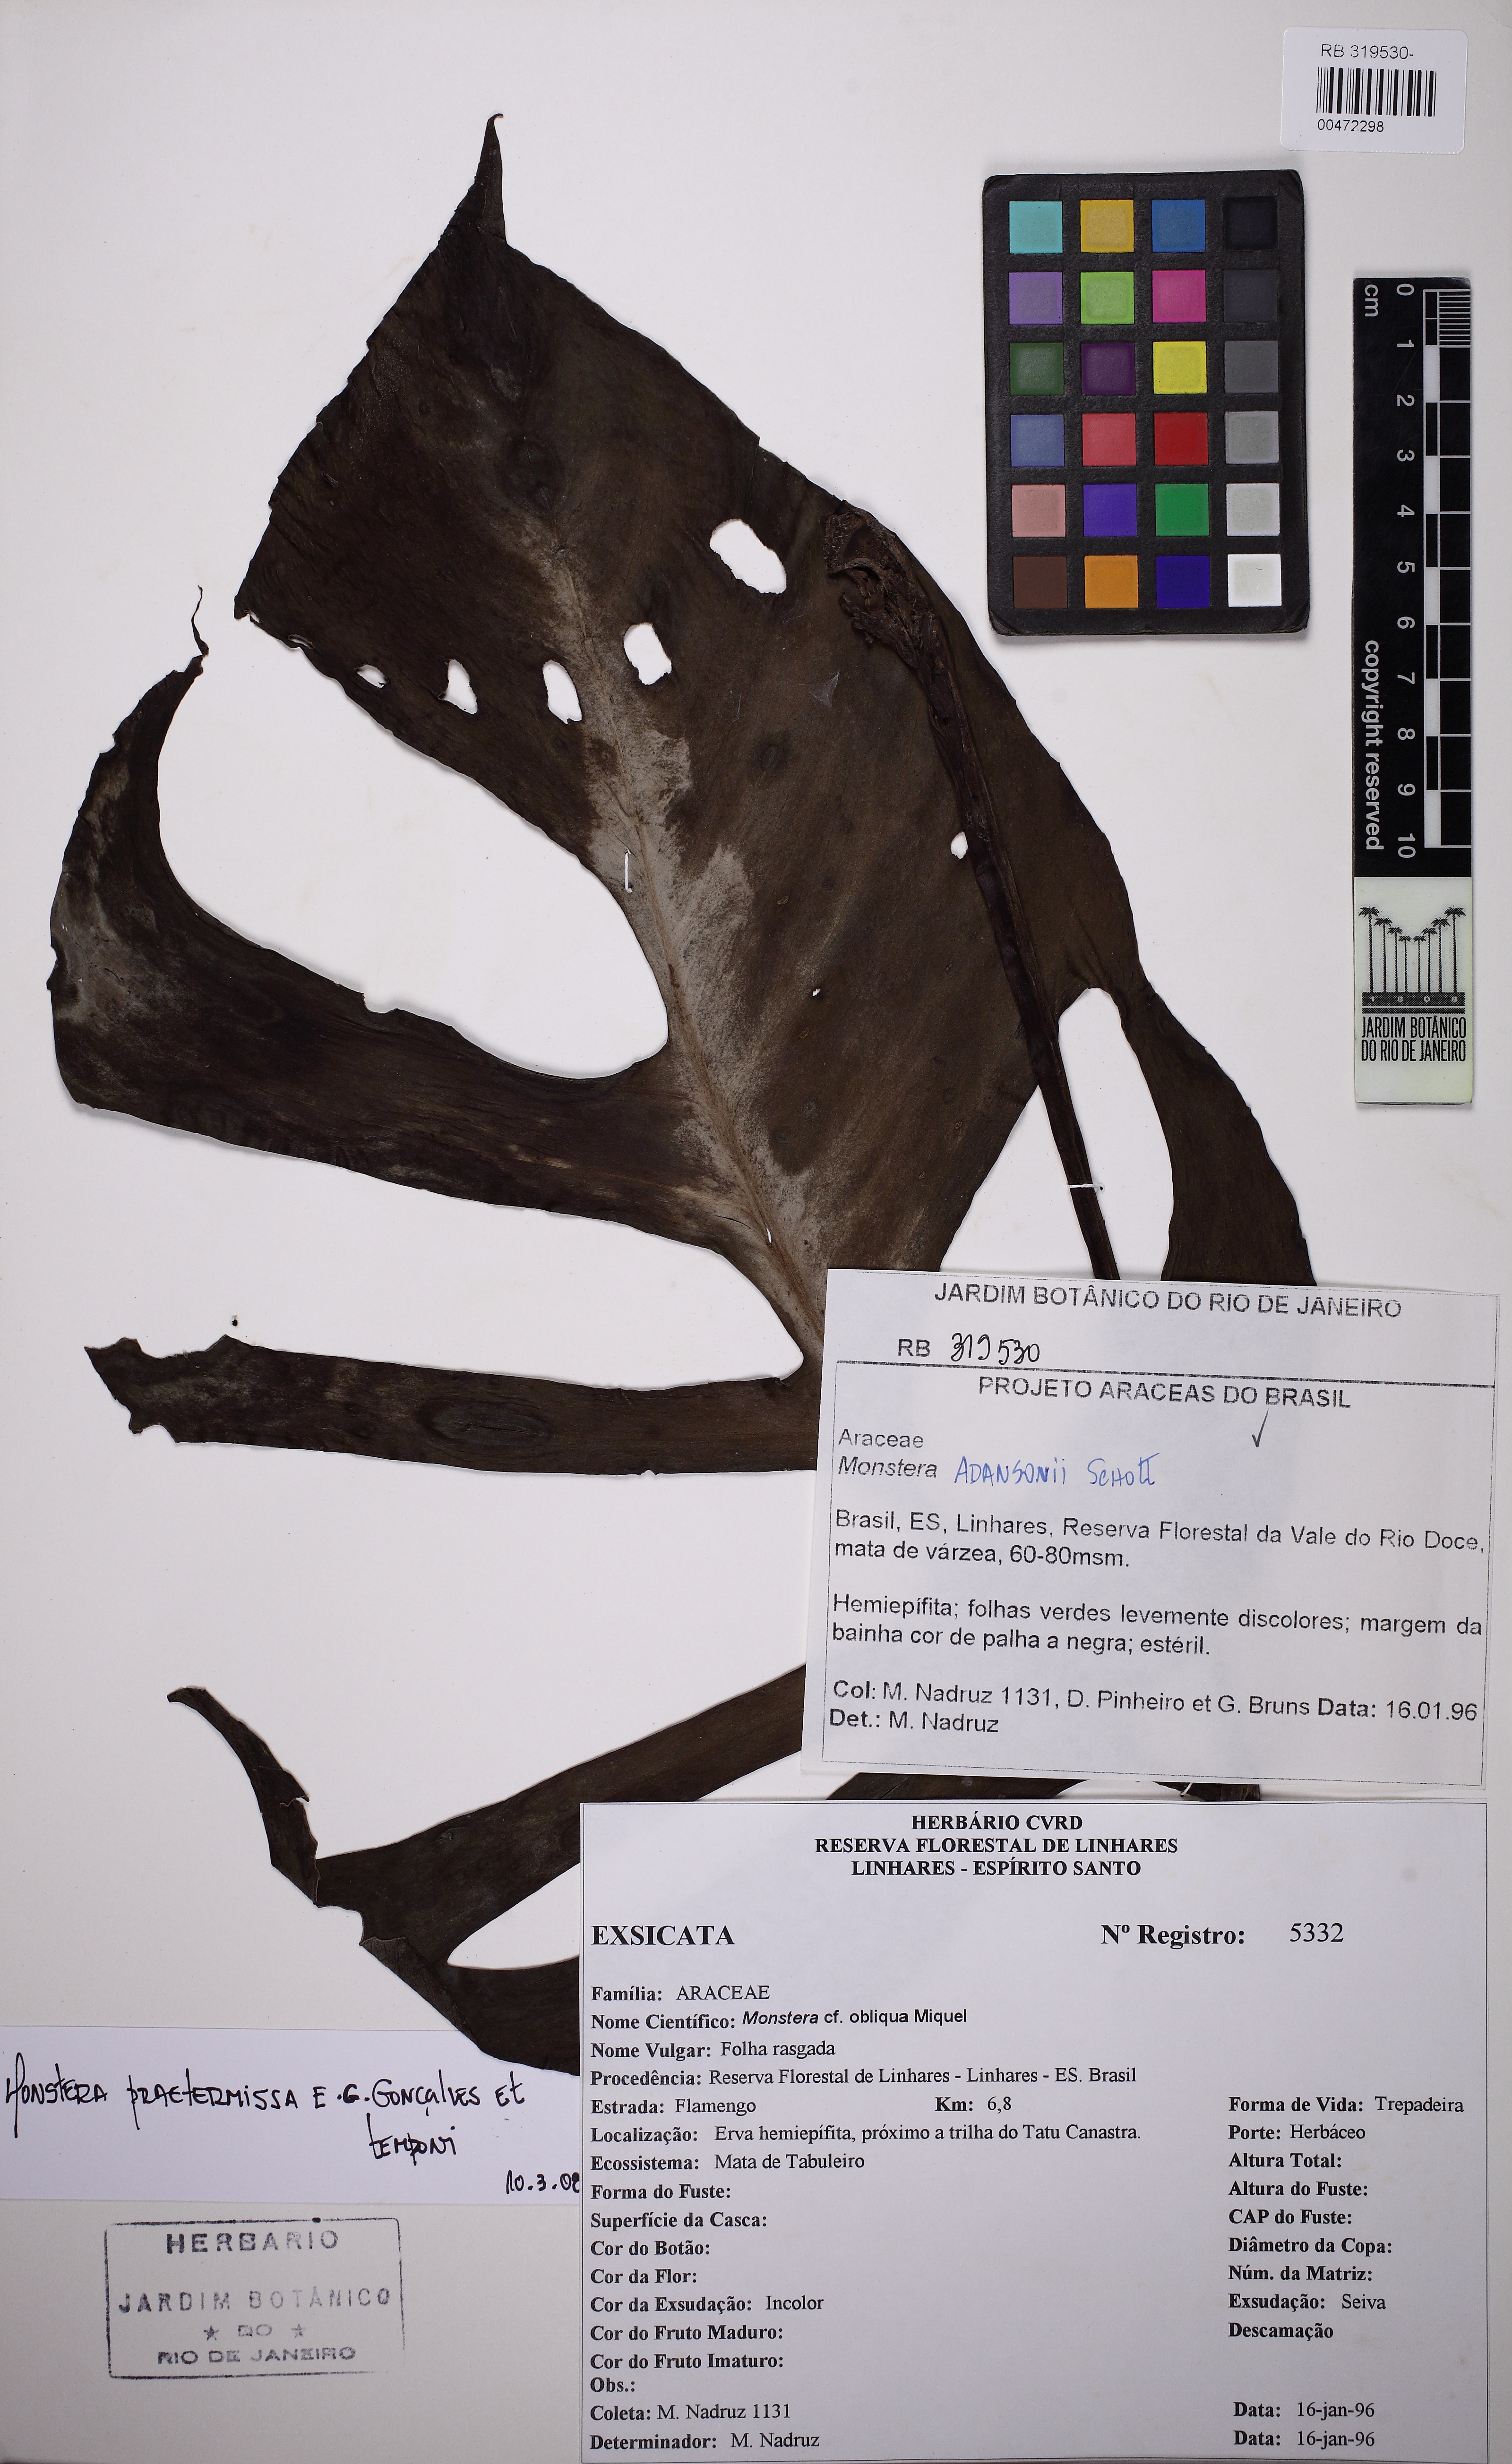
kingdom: Plantae
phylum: Tracheophyta
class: Liliopsida
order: Alismatales
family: Araceae
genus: Monstera
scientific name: Monstera praetermissa
